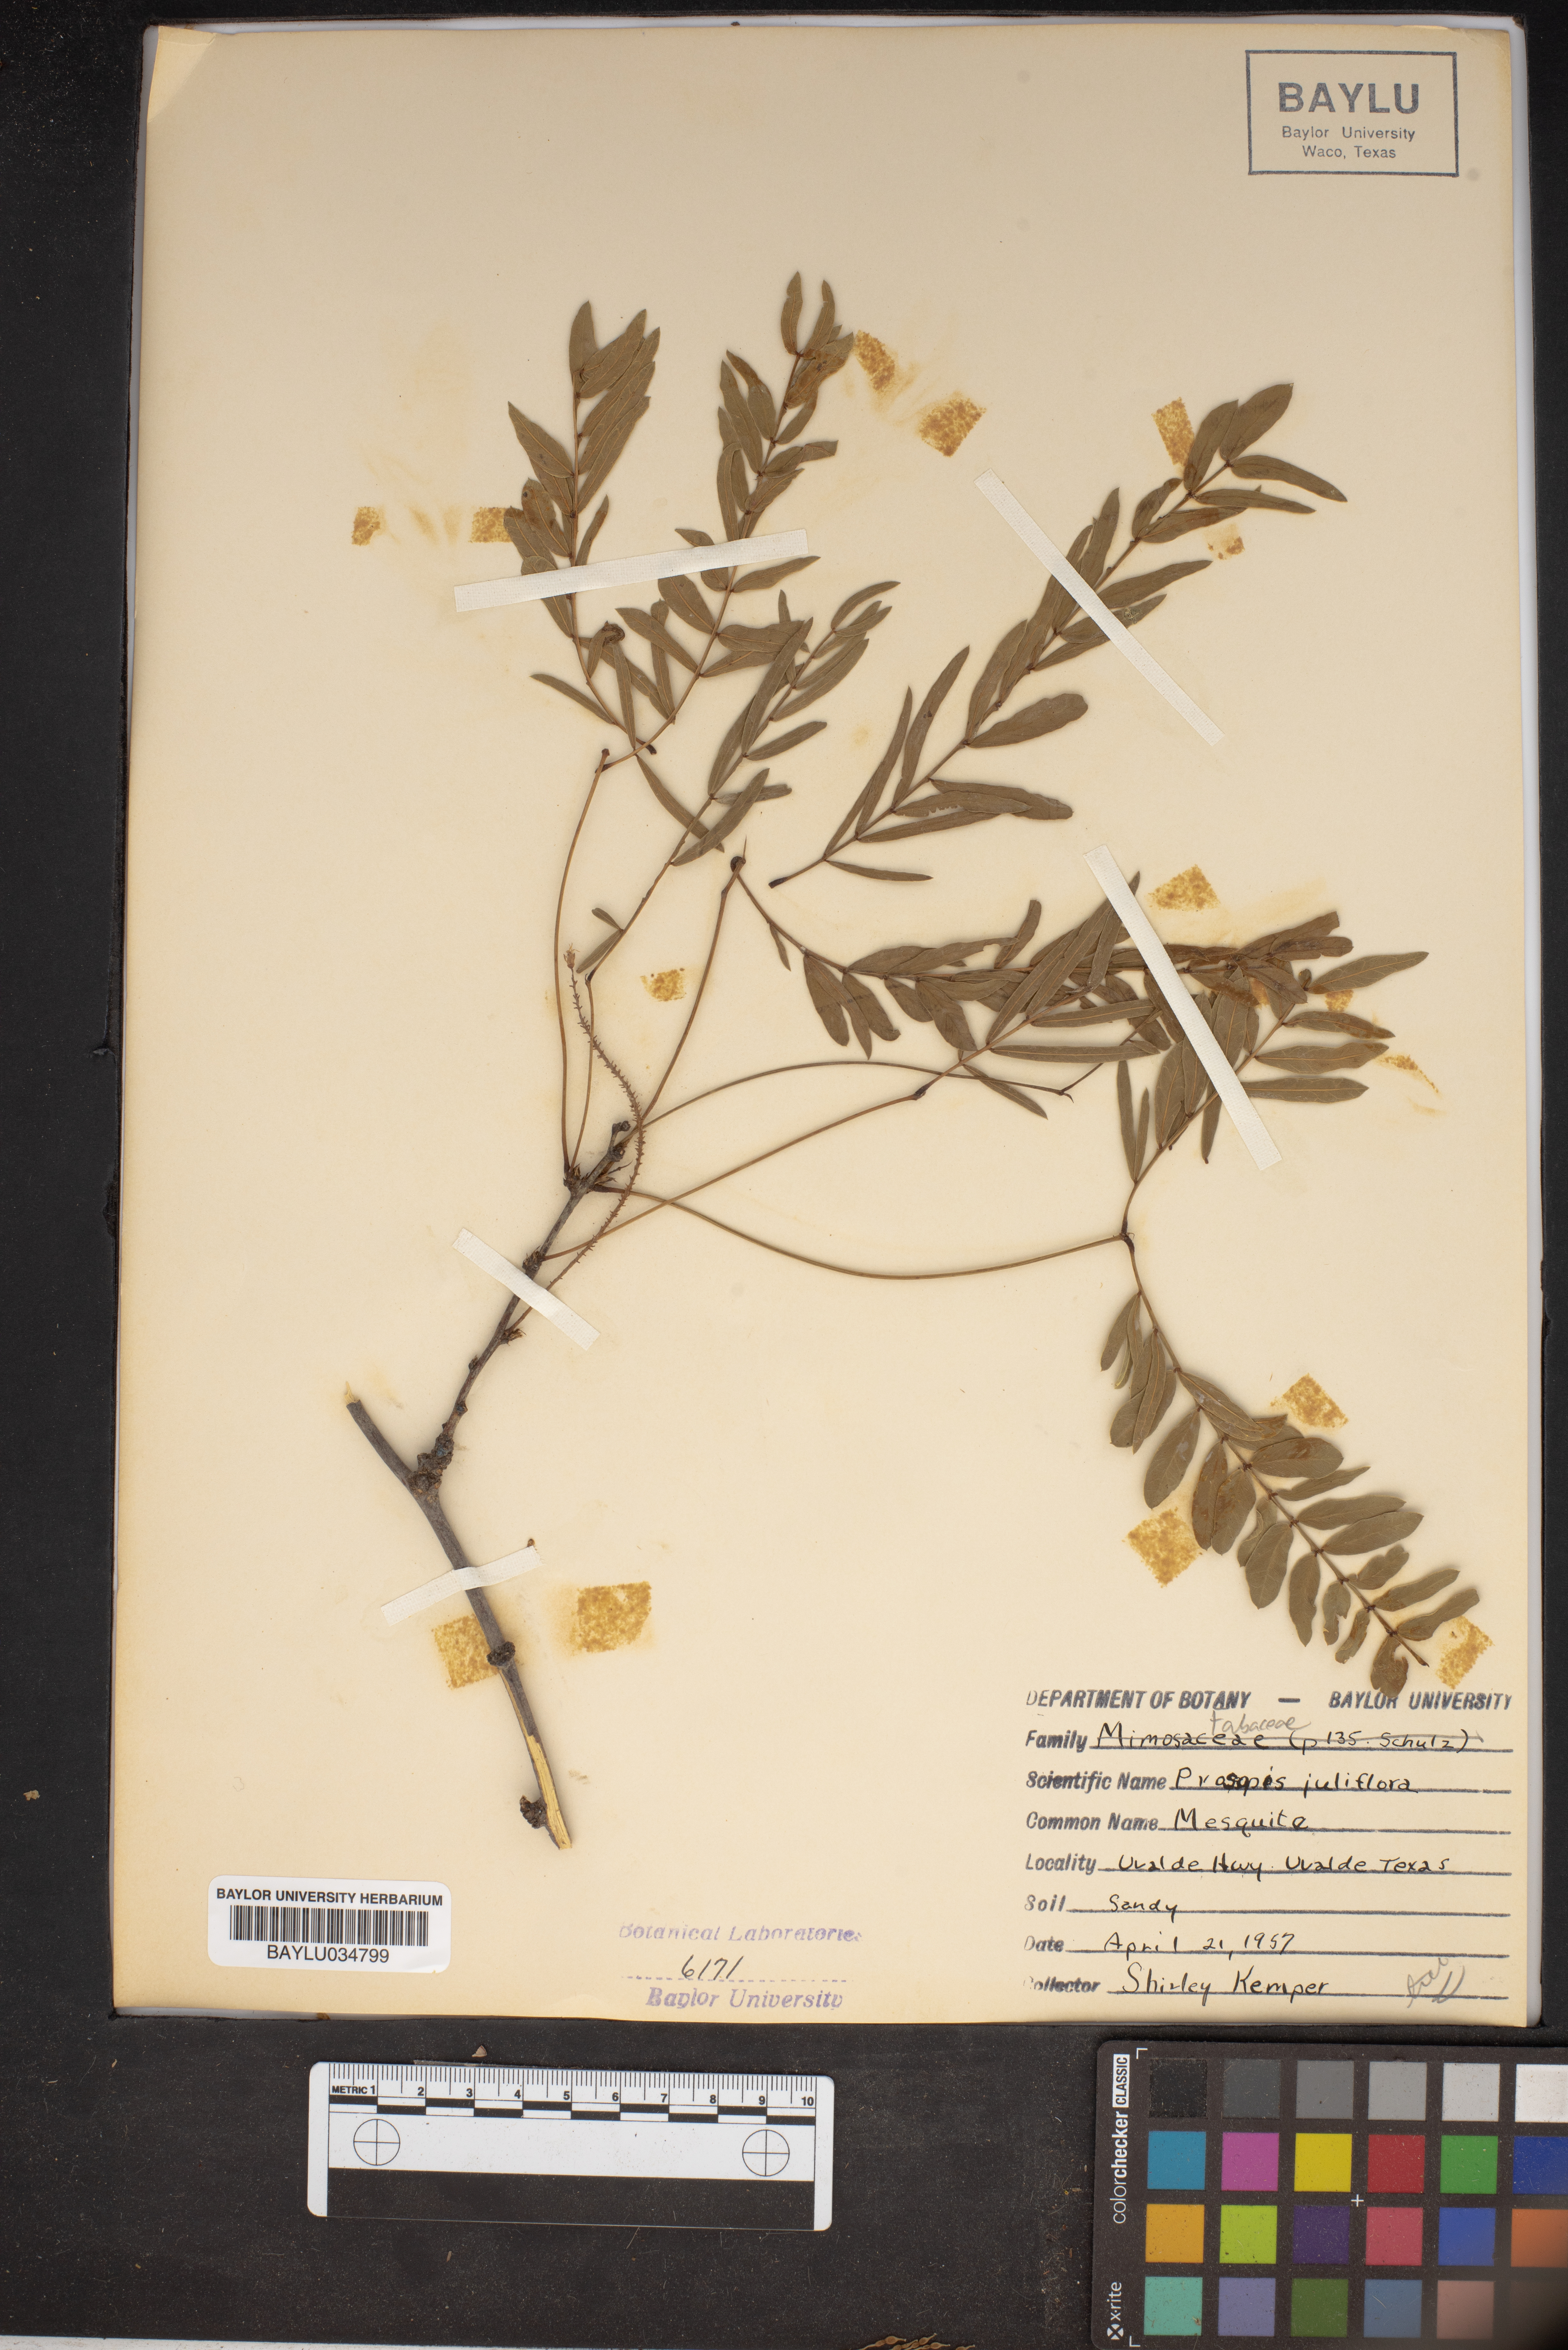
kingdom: Plantae
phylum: Tracheophyta
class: Magnoliopsida
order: Fabales
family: Fabaceae
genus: Prosopis
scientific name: Prosopis juliflora
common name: Mesquite
